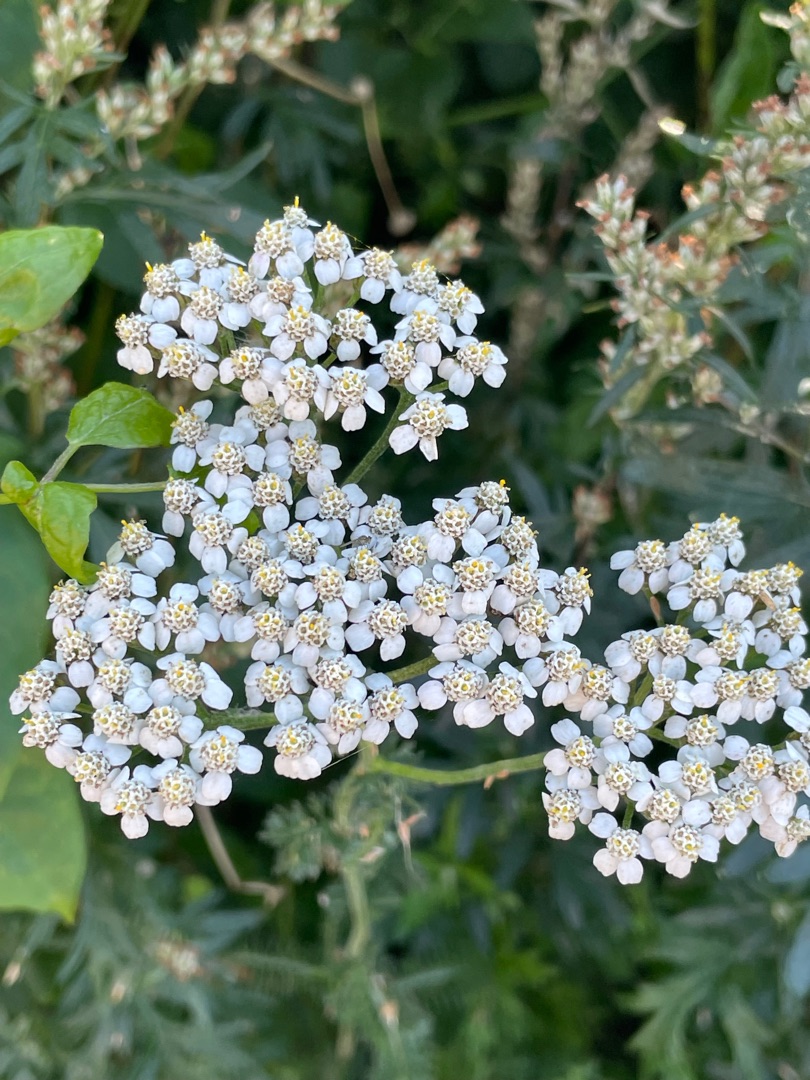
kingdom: Plantae
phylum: Tracheophyta
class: Magnoliopsida
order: Asterales
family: Asteraceae
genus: Achillea
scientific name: Achillea millefolium
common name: Almindelig røllike
